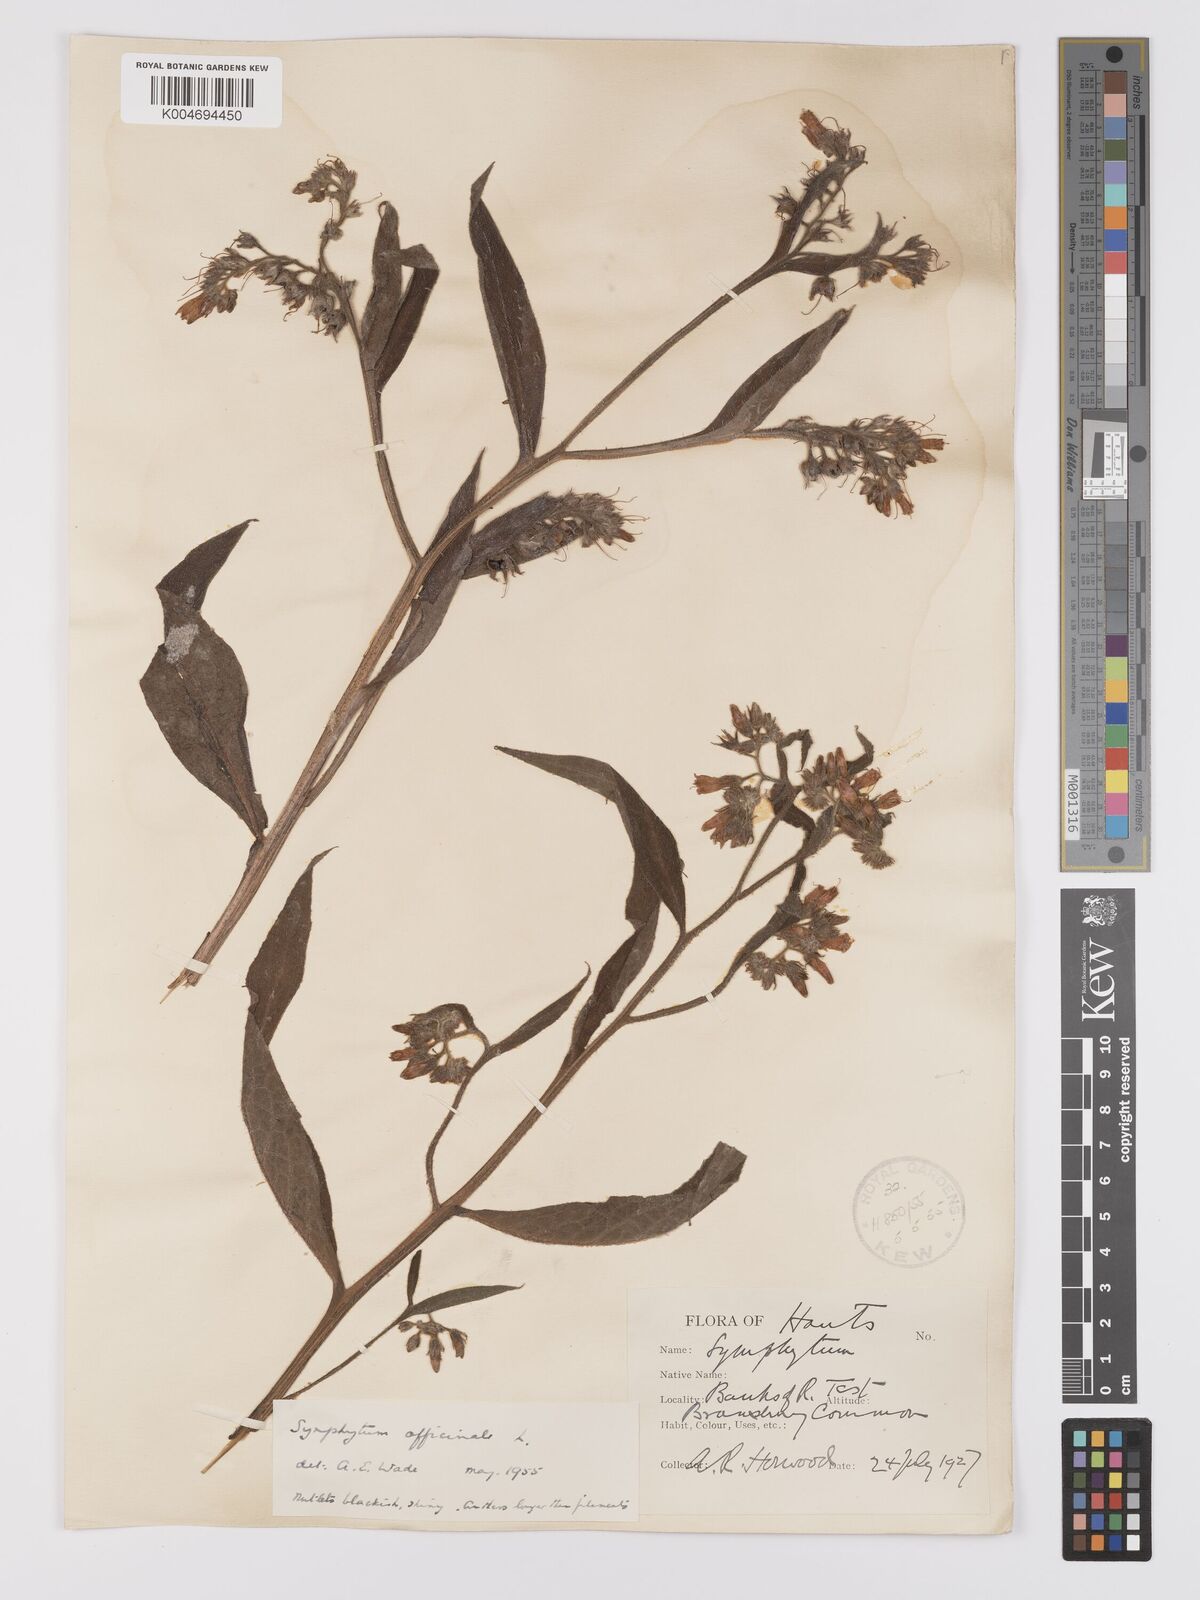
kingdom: Plantae
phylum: Tracheophyta
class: Magnoliopsida
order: Boraginales
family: Boraginaceae
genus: Symphytum
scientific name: Symphytum officinale
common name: Common comfrey
